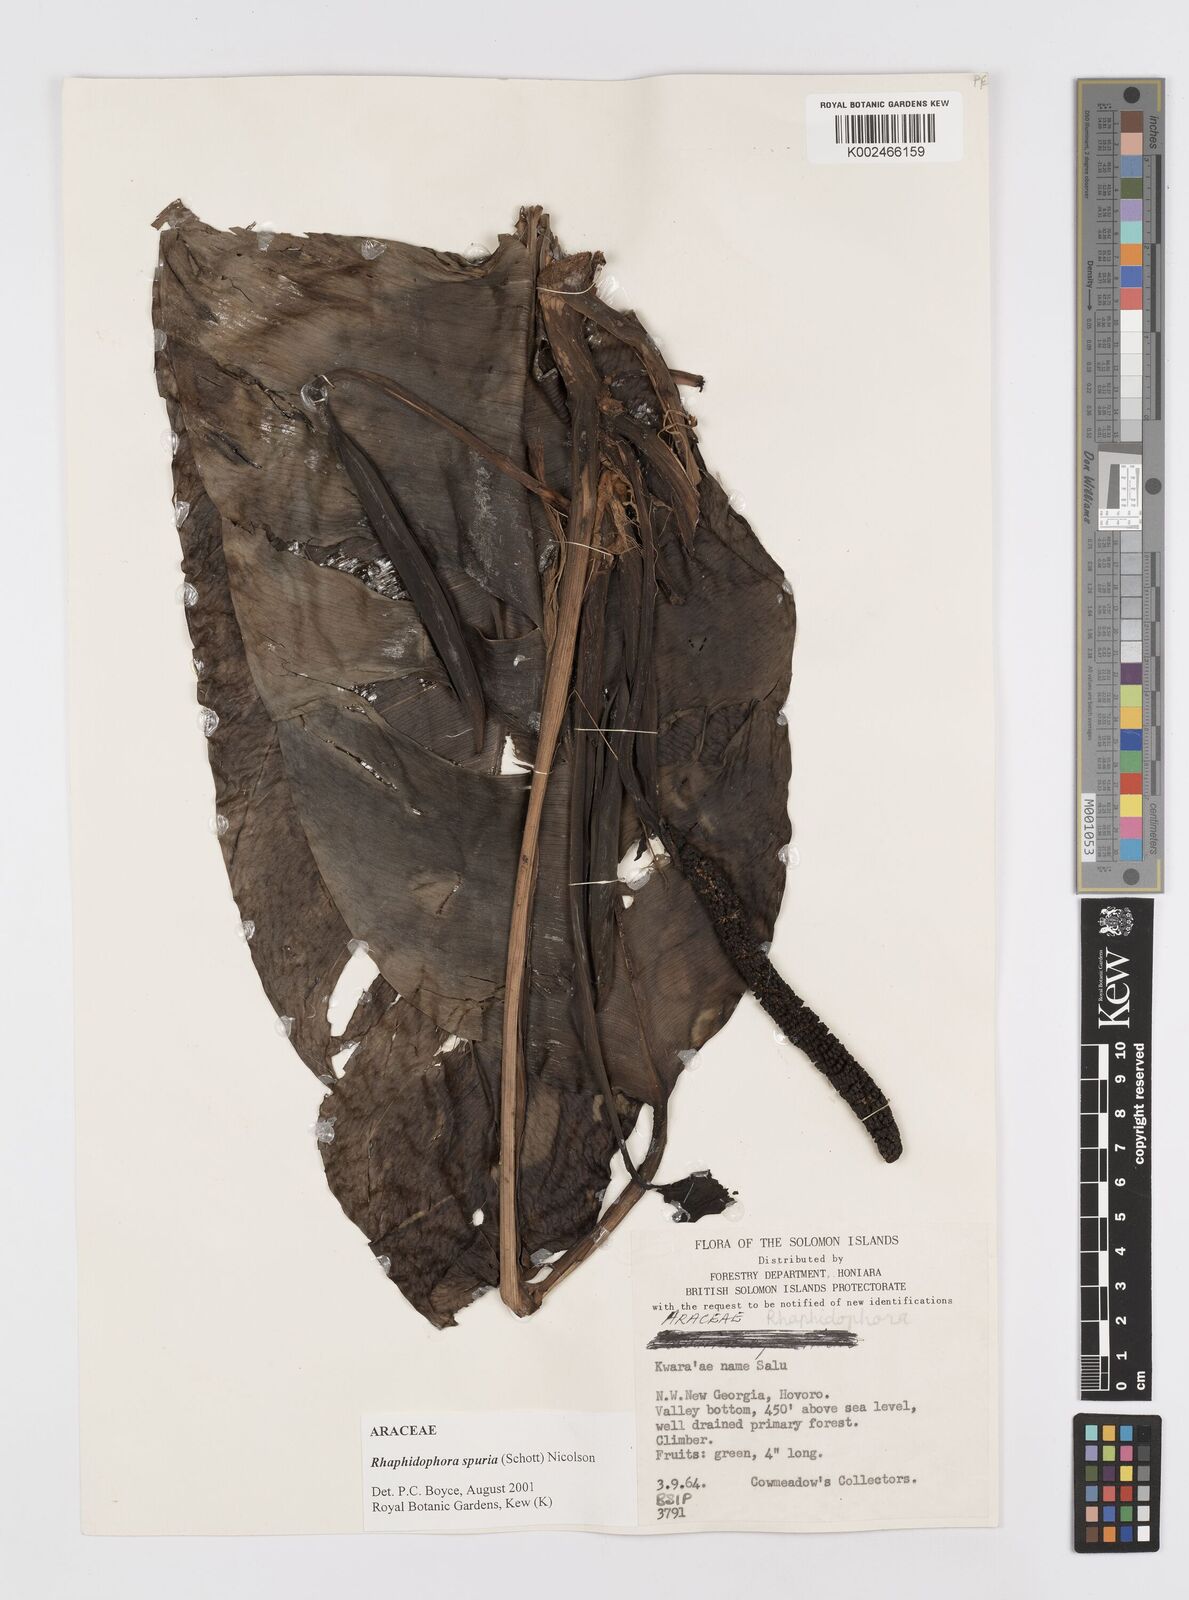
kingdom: Plantae
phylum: Tracheophyta
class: Liliopsida
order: Alismatales
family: Araceae
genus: Rhaphidophora
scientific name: Rhaphidophora spuria
